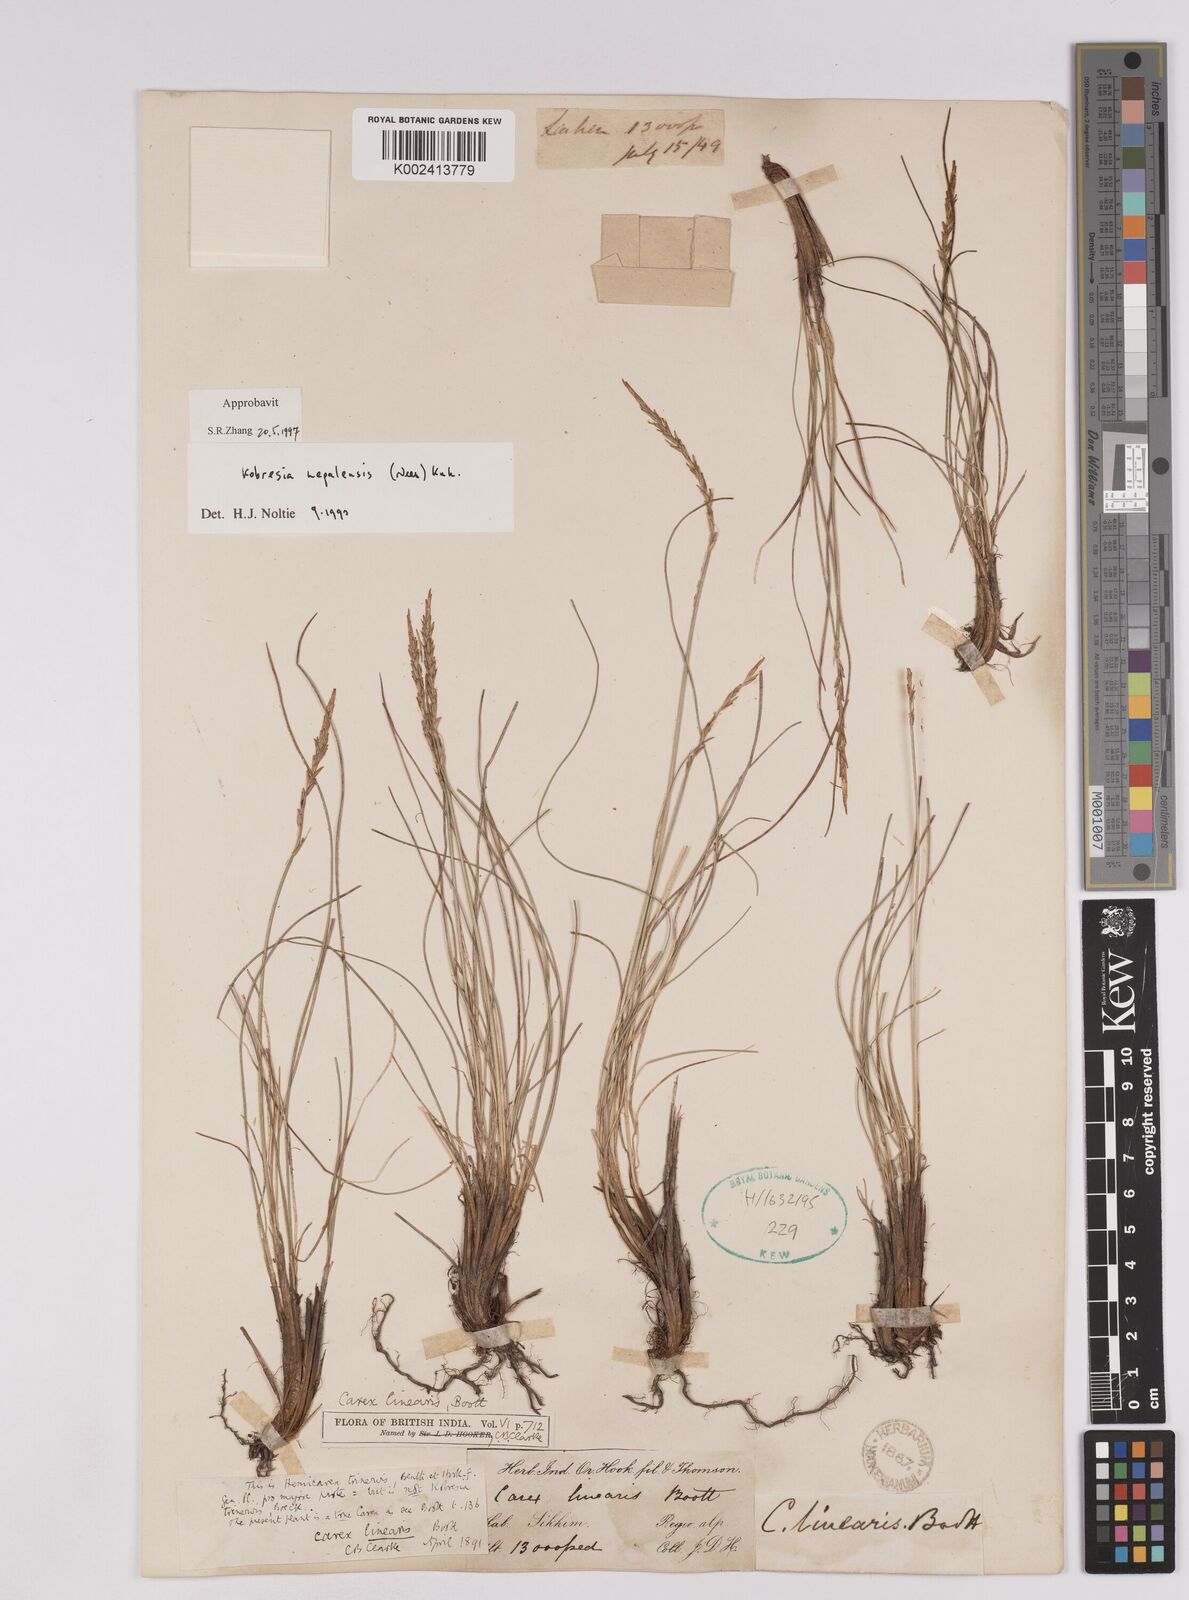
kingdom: Plantae
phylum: Tracheophyta
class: Liliopsida
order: Poales
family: Cyperaceae
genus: Carex
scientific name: Carex esenbeckii
